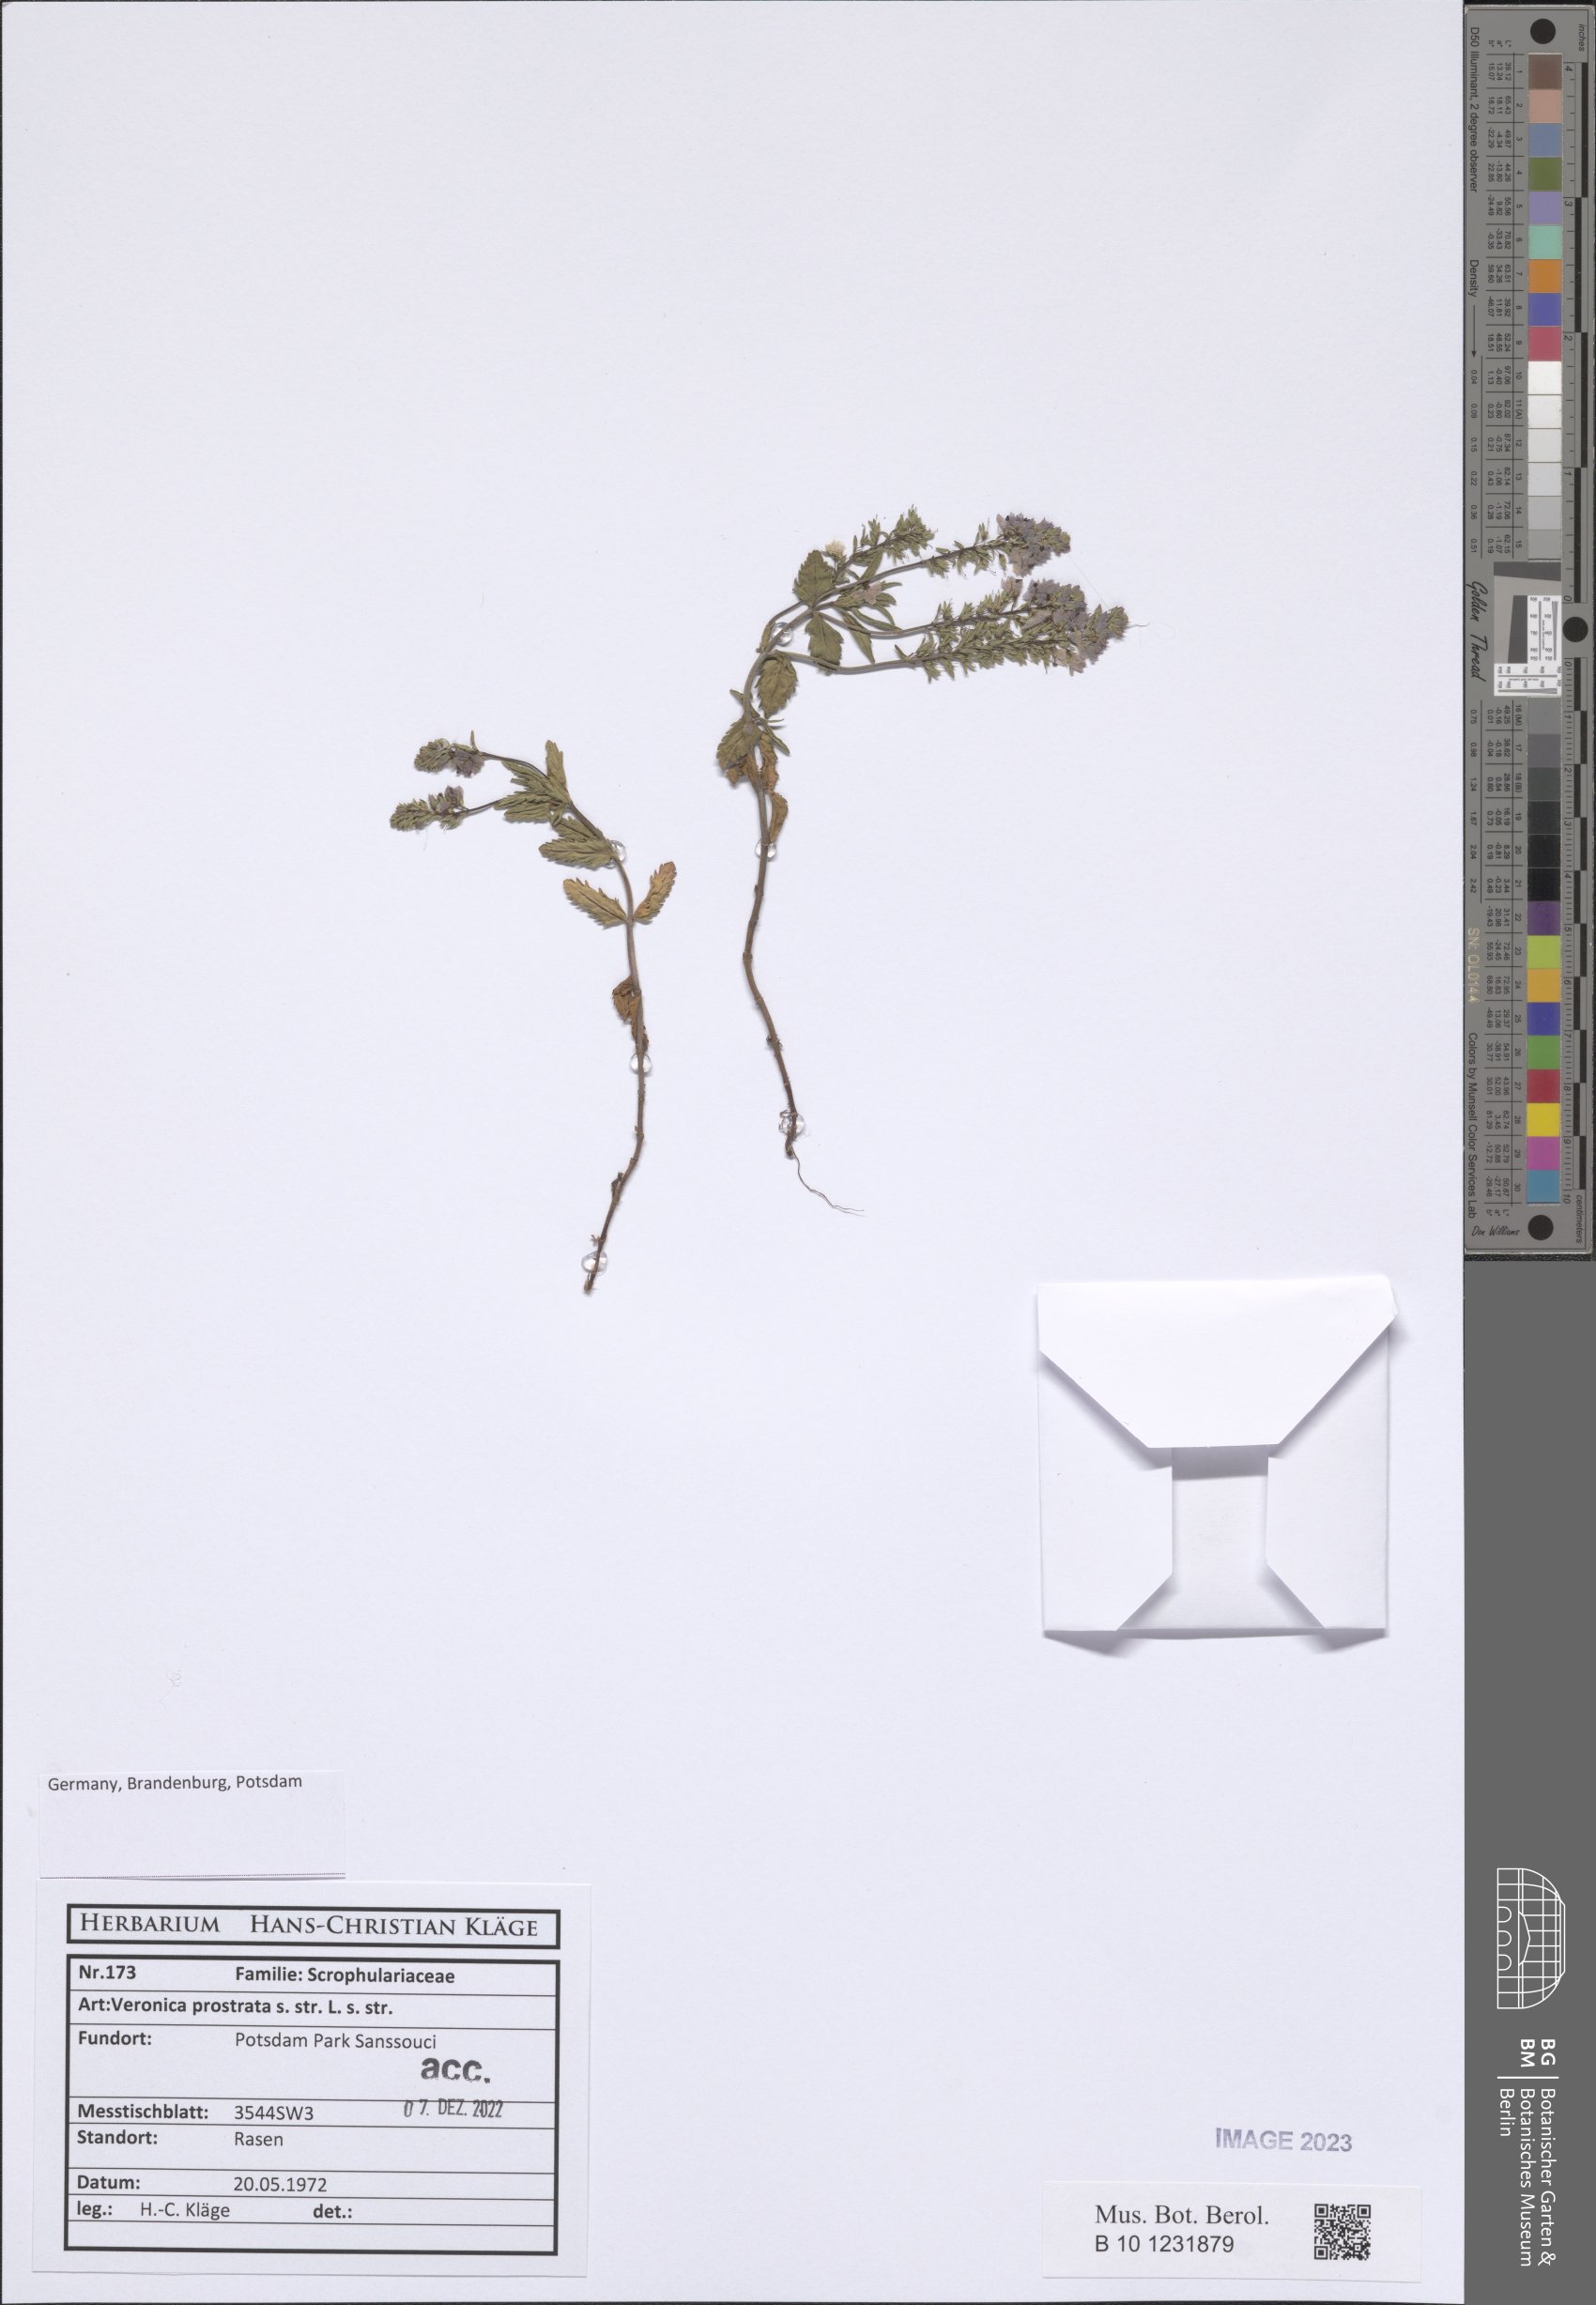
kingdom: Plantae
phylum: Tracheophyta
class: Magnoliopsida
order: Lamiales
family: Plantaginaceae
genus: Veronica
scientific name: Veronica prostrata
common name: Prostrate speedwell
